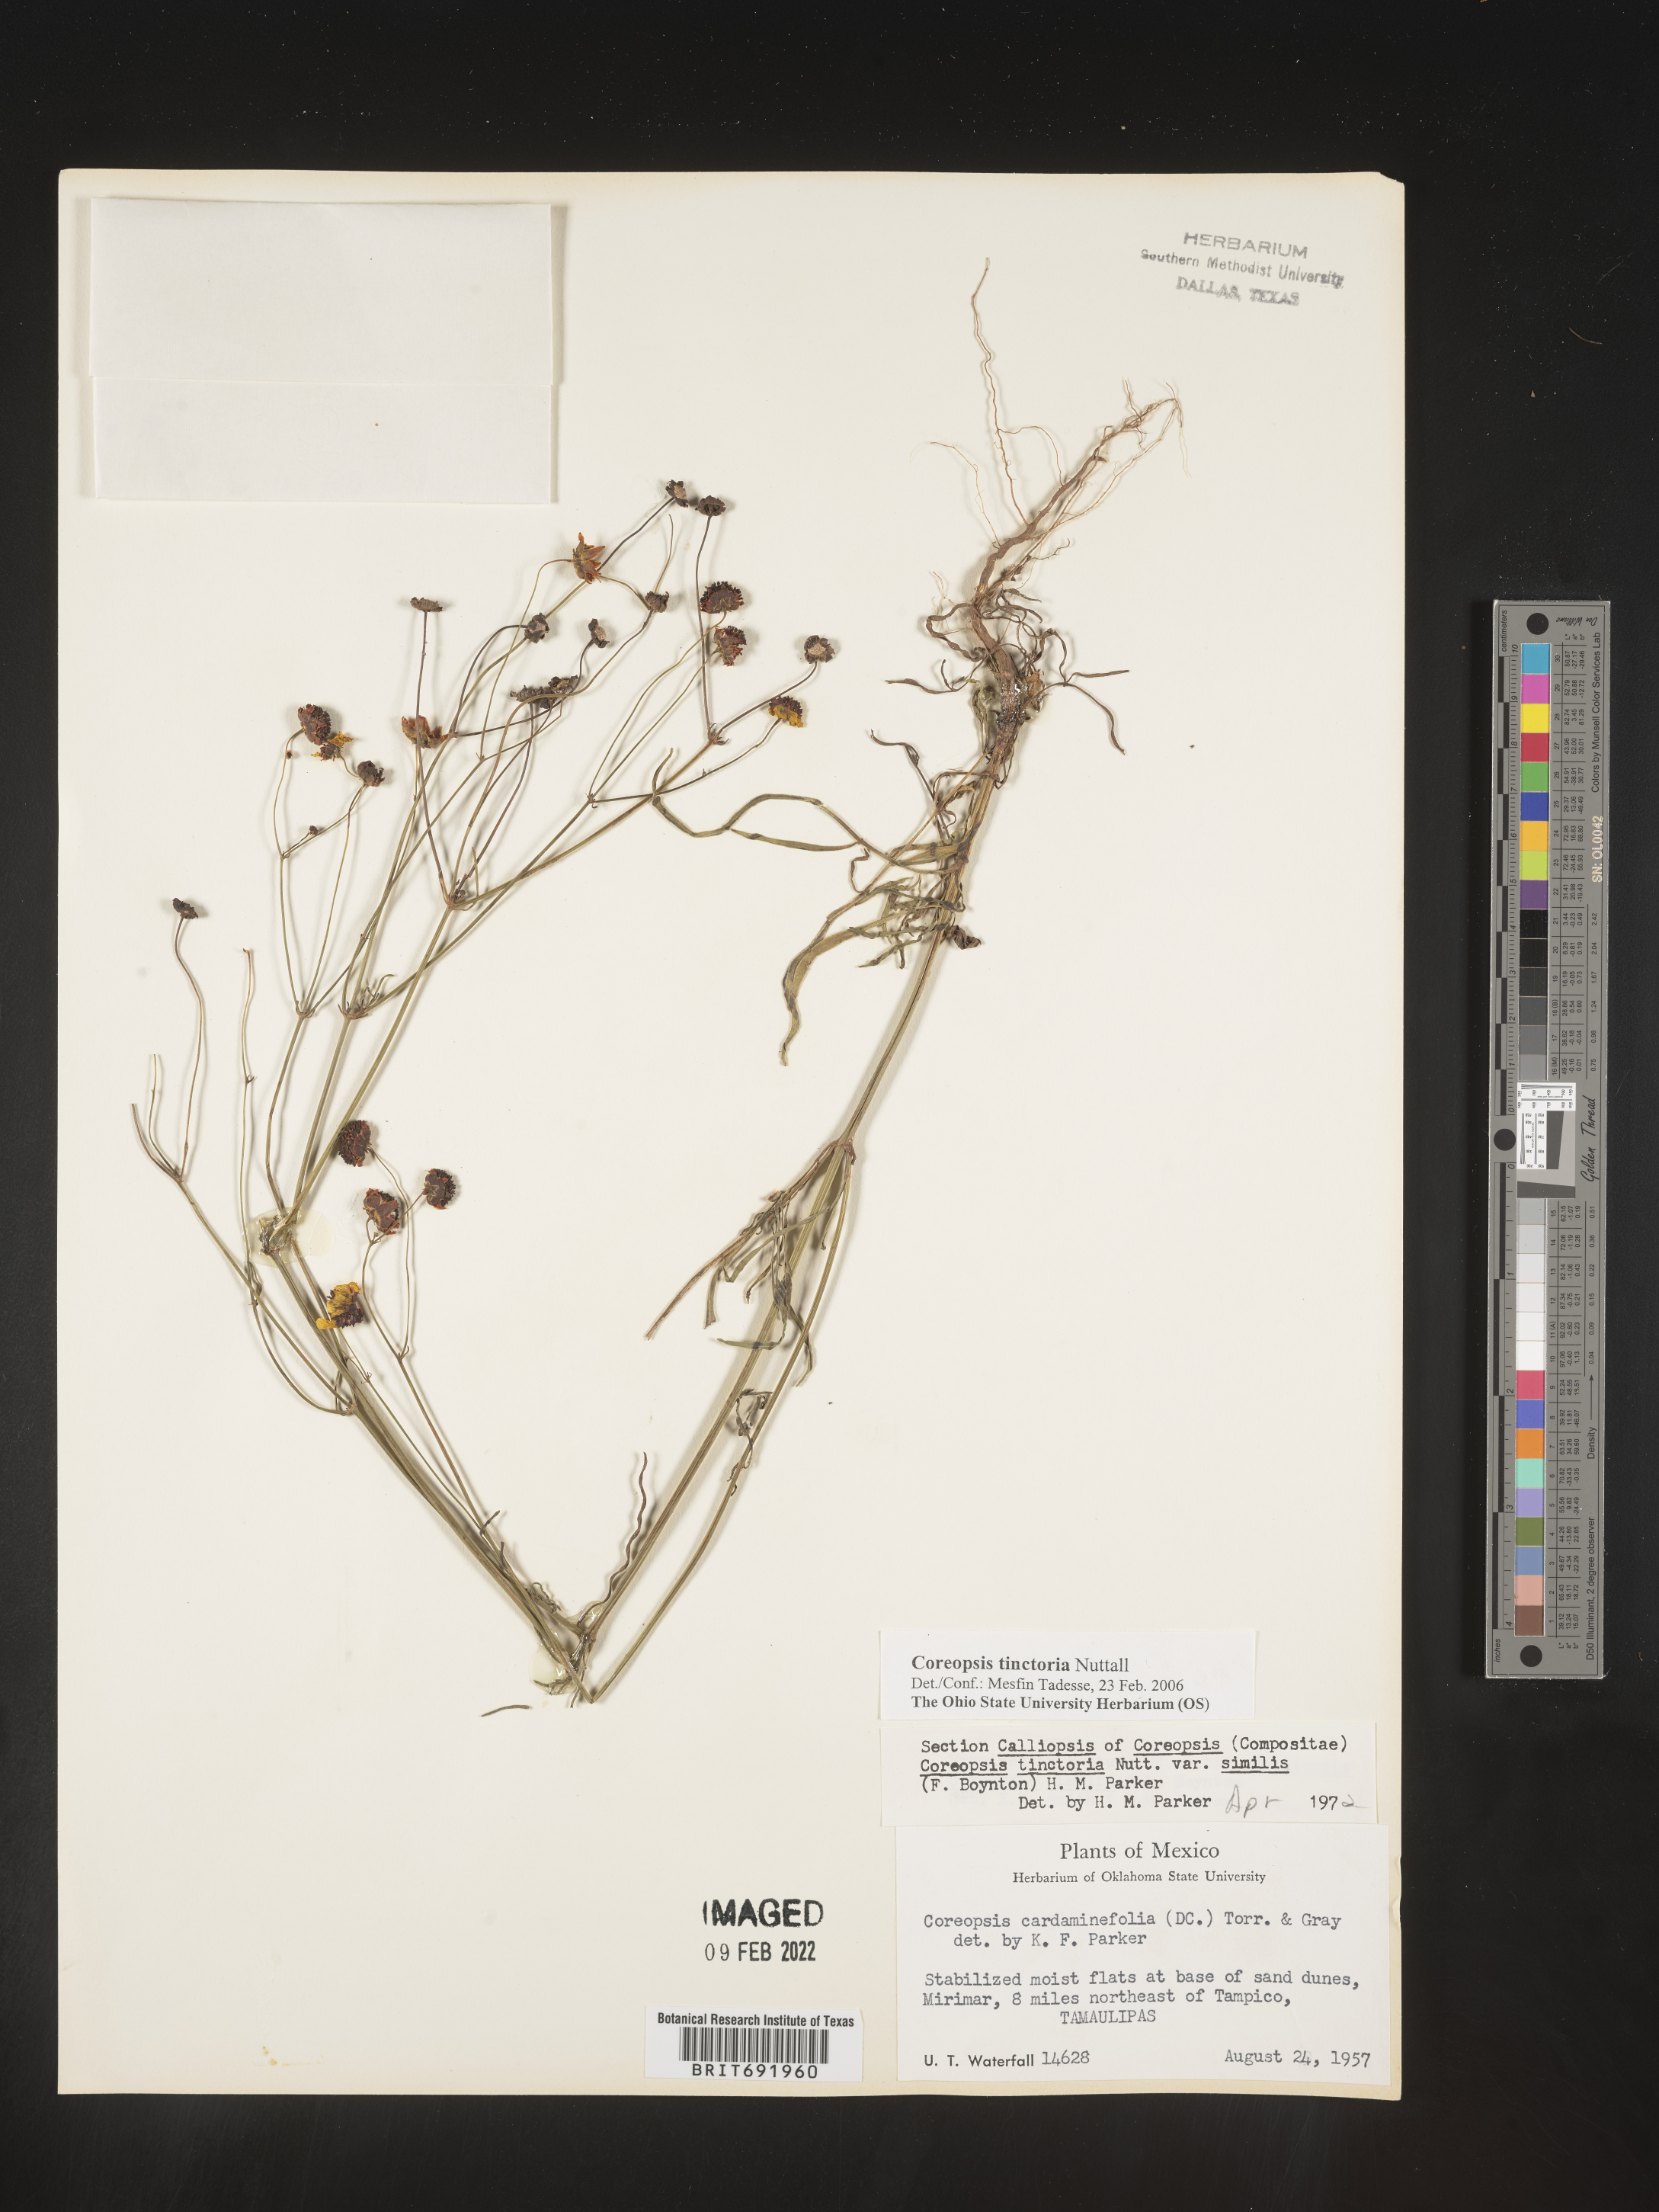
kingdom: Plantae
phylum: Tracheophyta
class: Magnoliopsida
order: Asterales
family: Asteraceae
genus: Coreopsis
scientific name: Coreopsis
